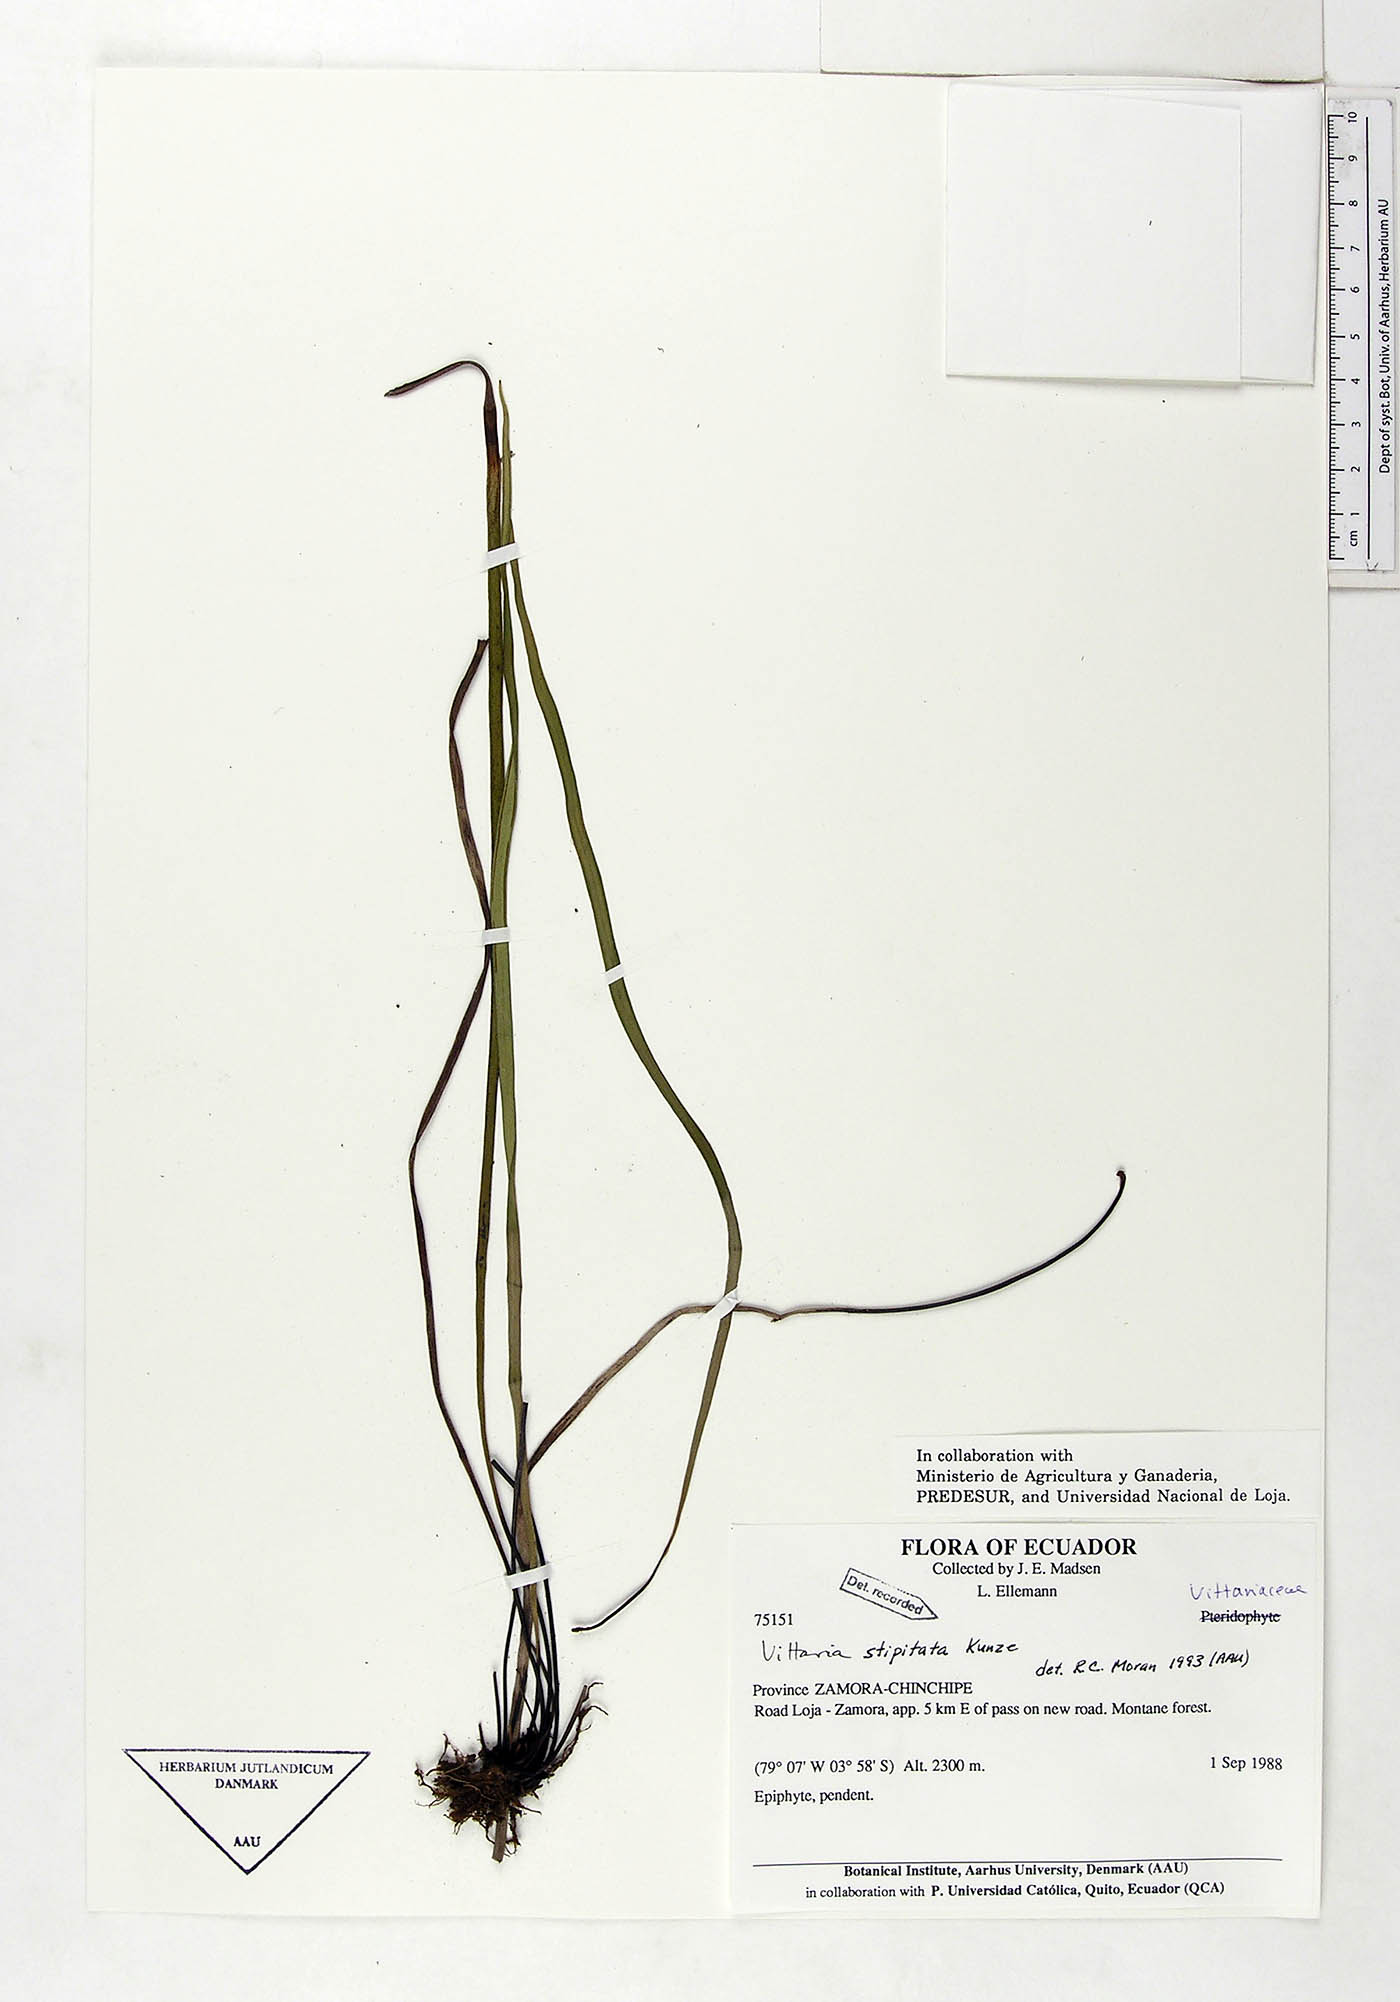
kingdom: Plantae
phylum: Tracheophyta
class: Polypodiopsida
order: Polypodiales
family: Pteridaceae
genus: Radiovittaria
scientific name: Radiovittaria stipitata
